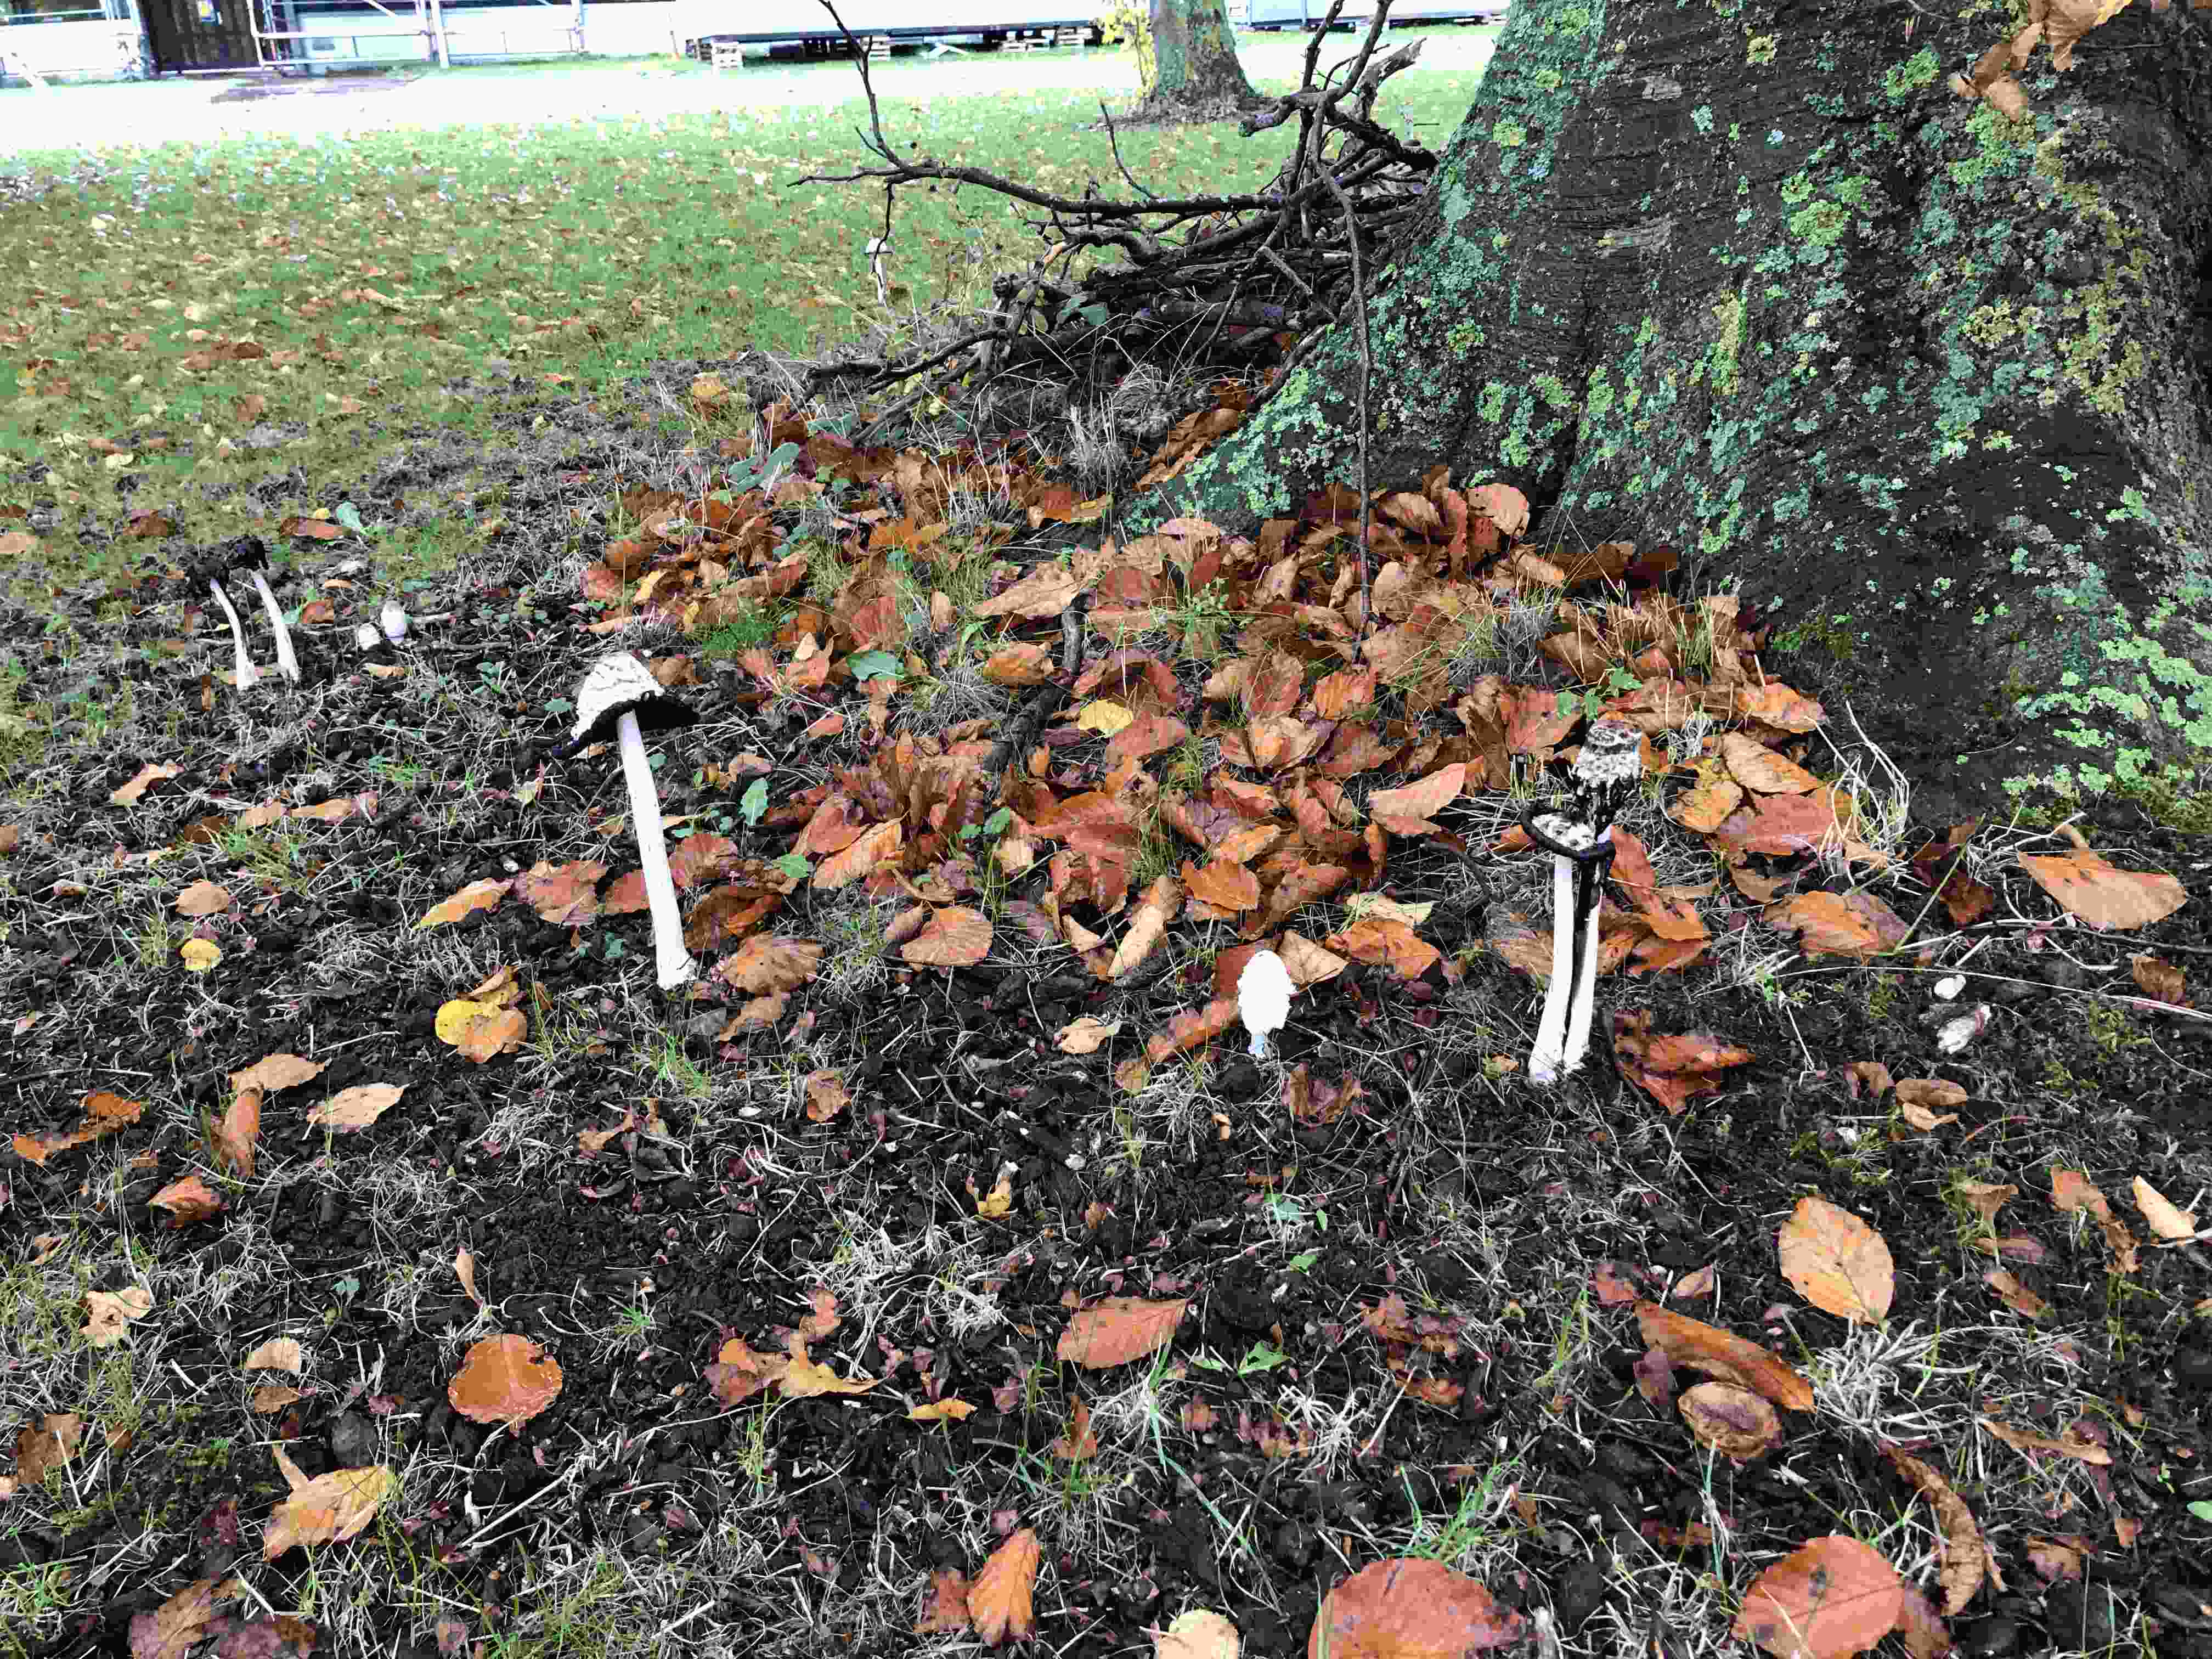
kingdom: Fungi
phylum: Basidiomycota
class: Agaricomycetes
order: Agaricales
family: Agaricaceae
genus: Coprinus
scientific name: Coprinus comatus
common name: stor parykhat
